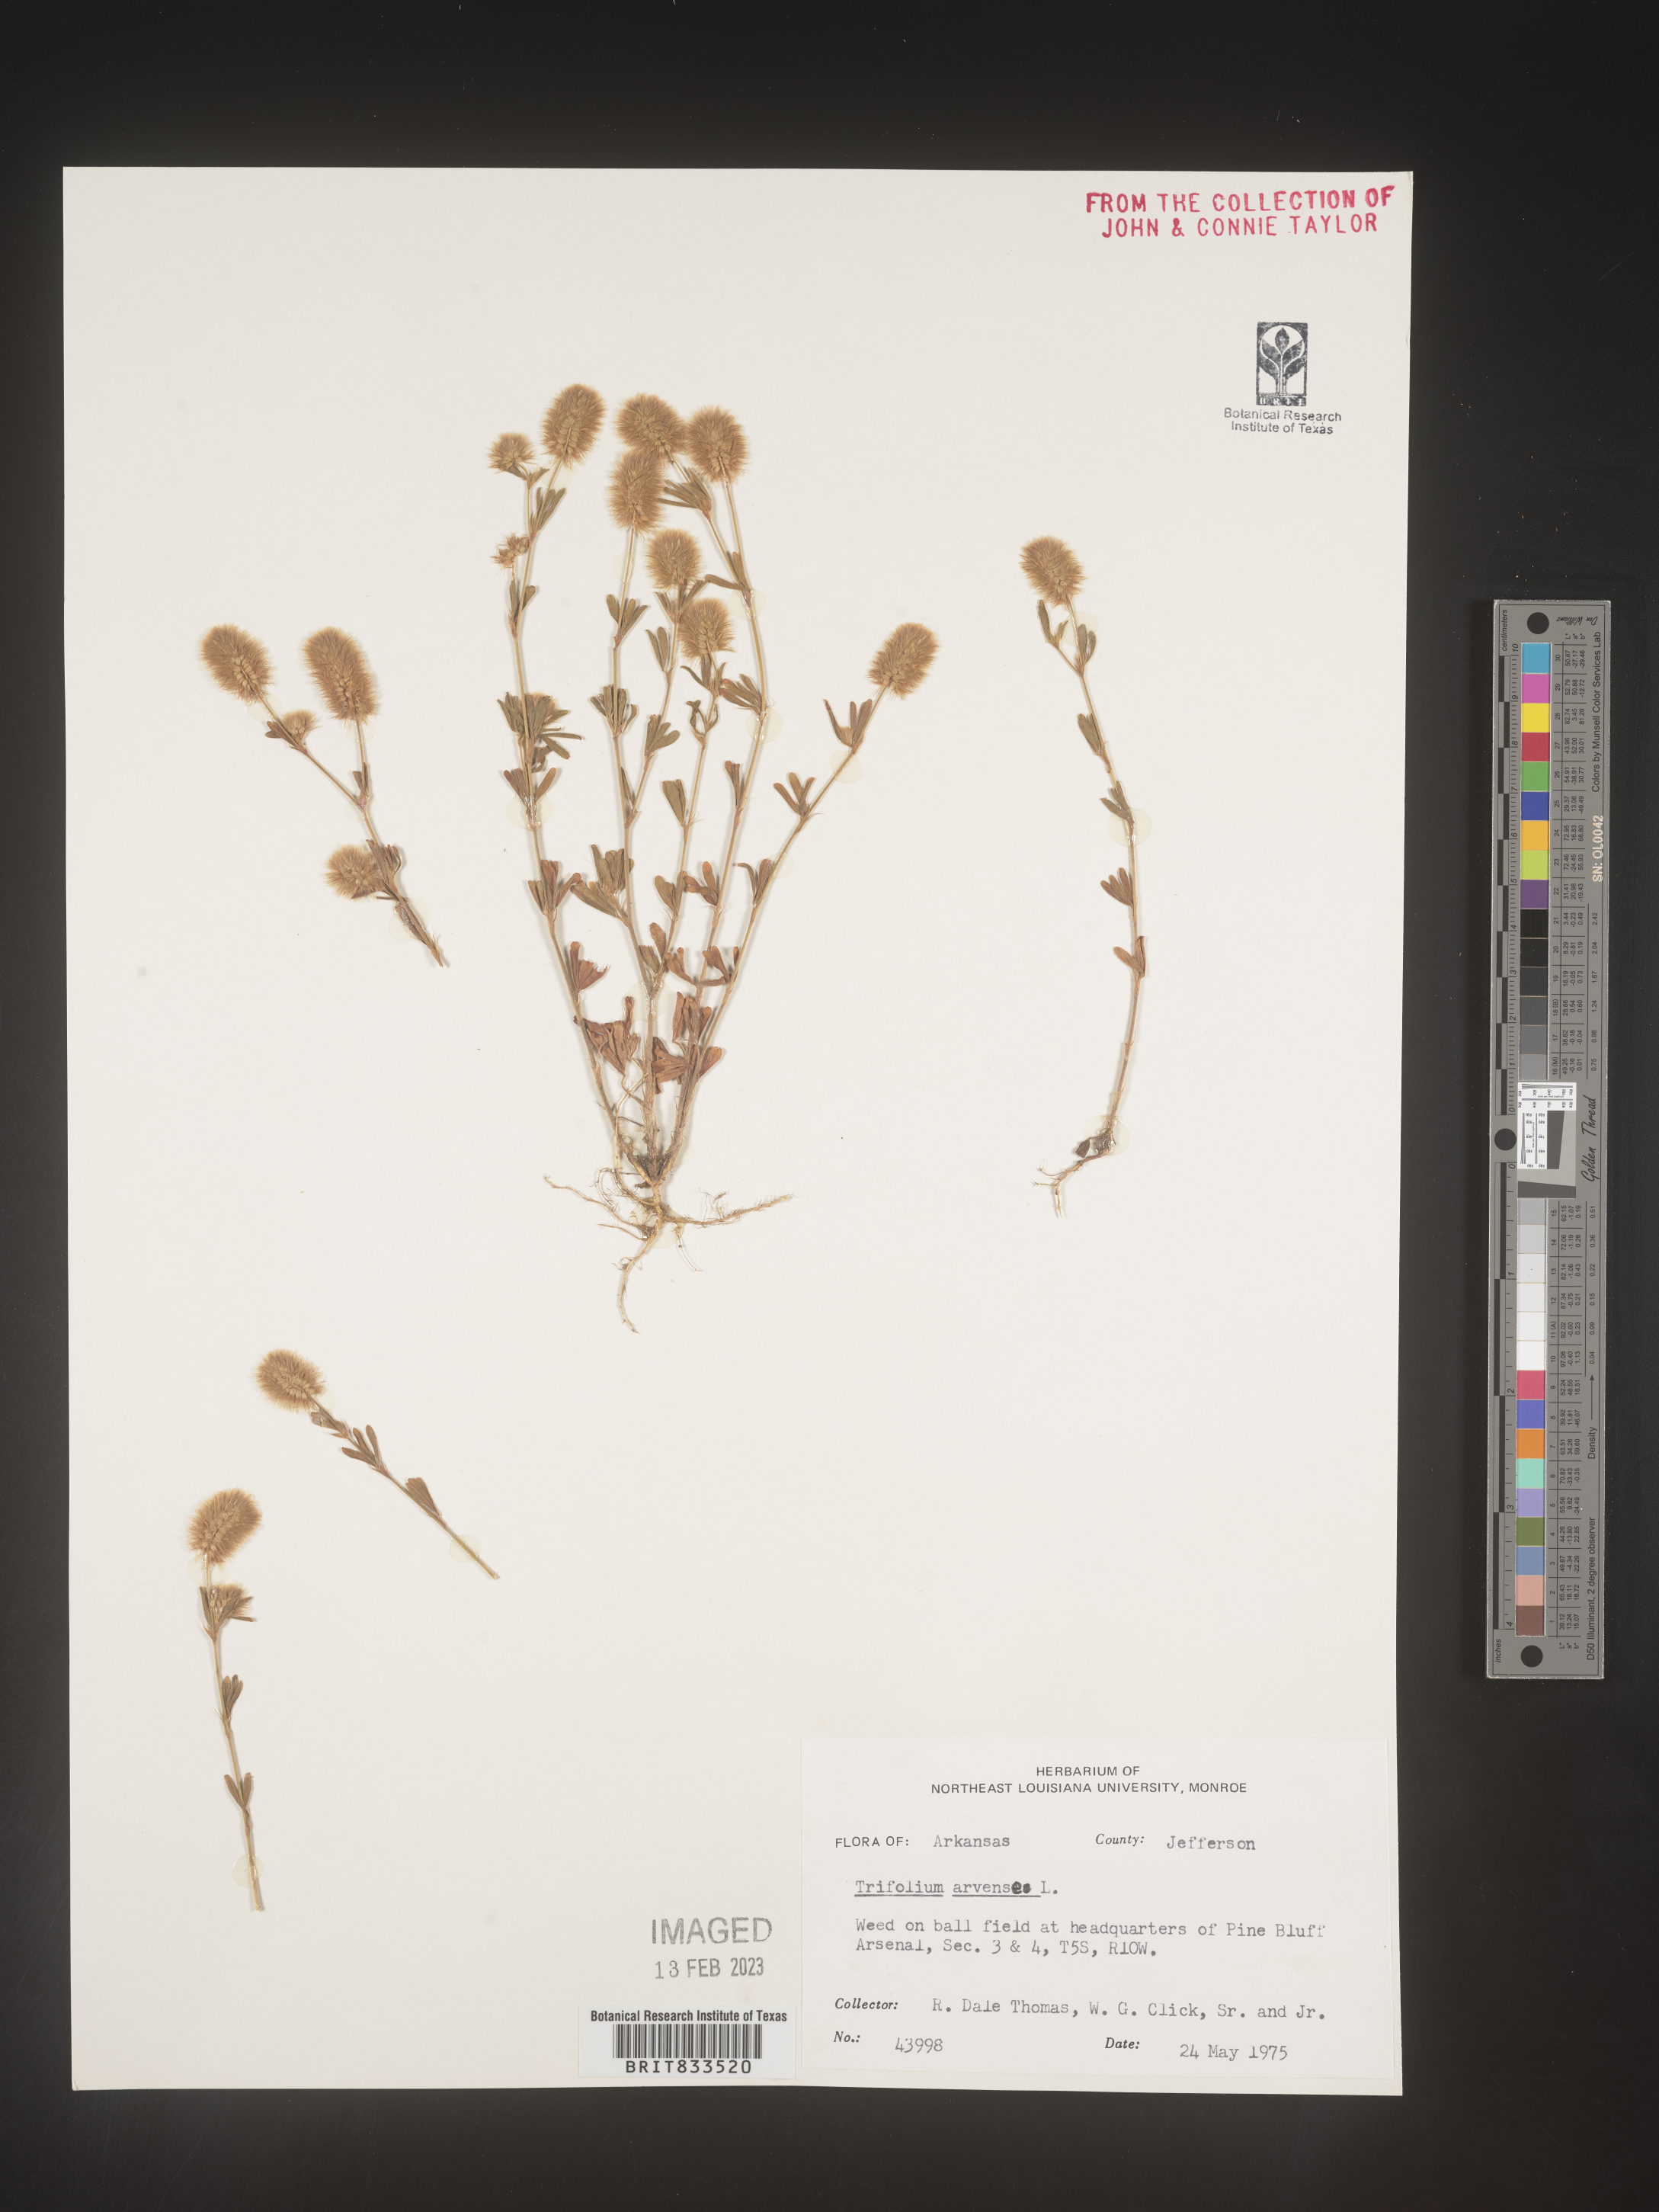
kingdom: Plantae
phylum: Tracheophyta
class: Magnoliopsida
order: Fabales
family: Fabaceae
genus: Trifolium
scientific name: Trifolium arvense
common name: Hare's-foot clover
